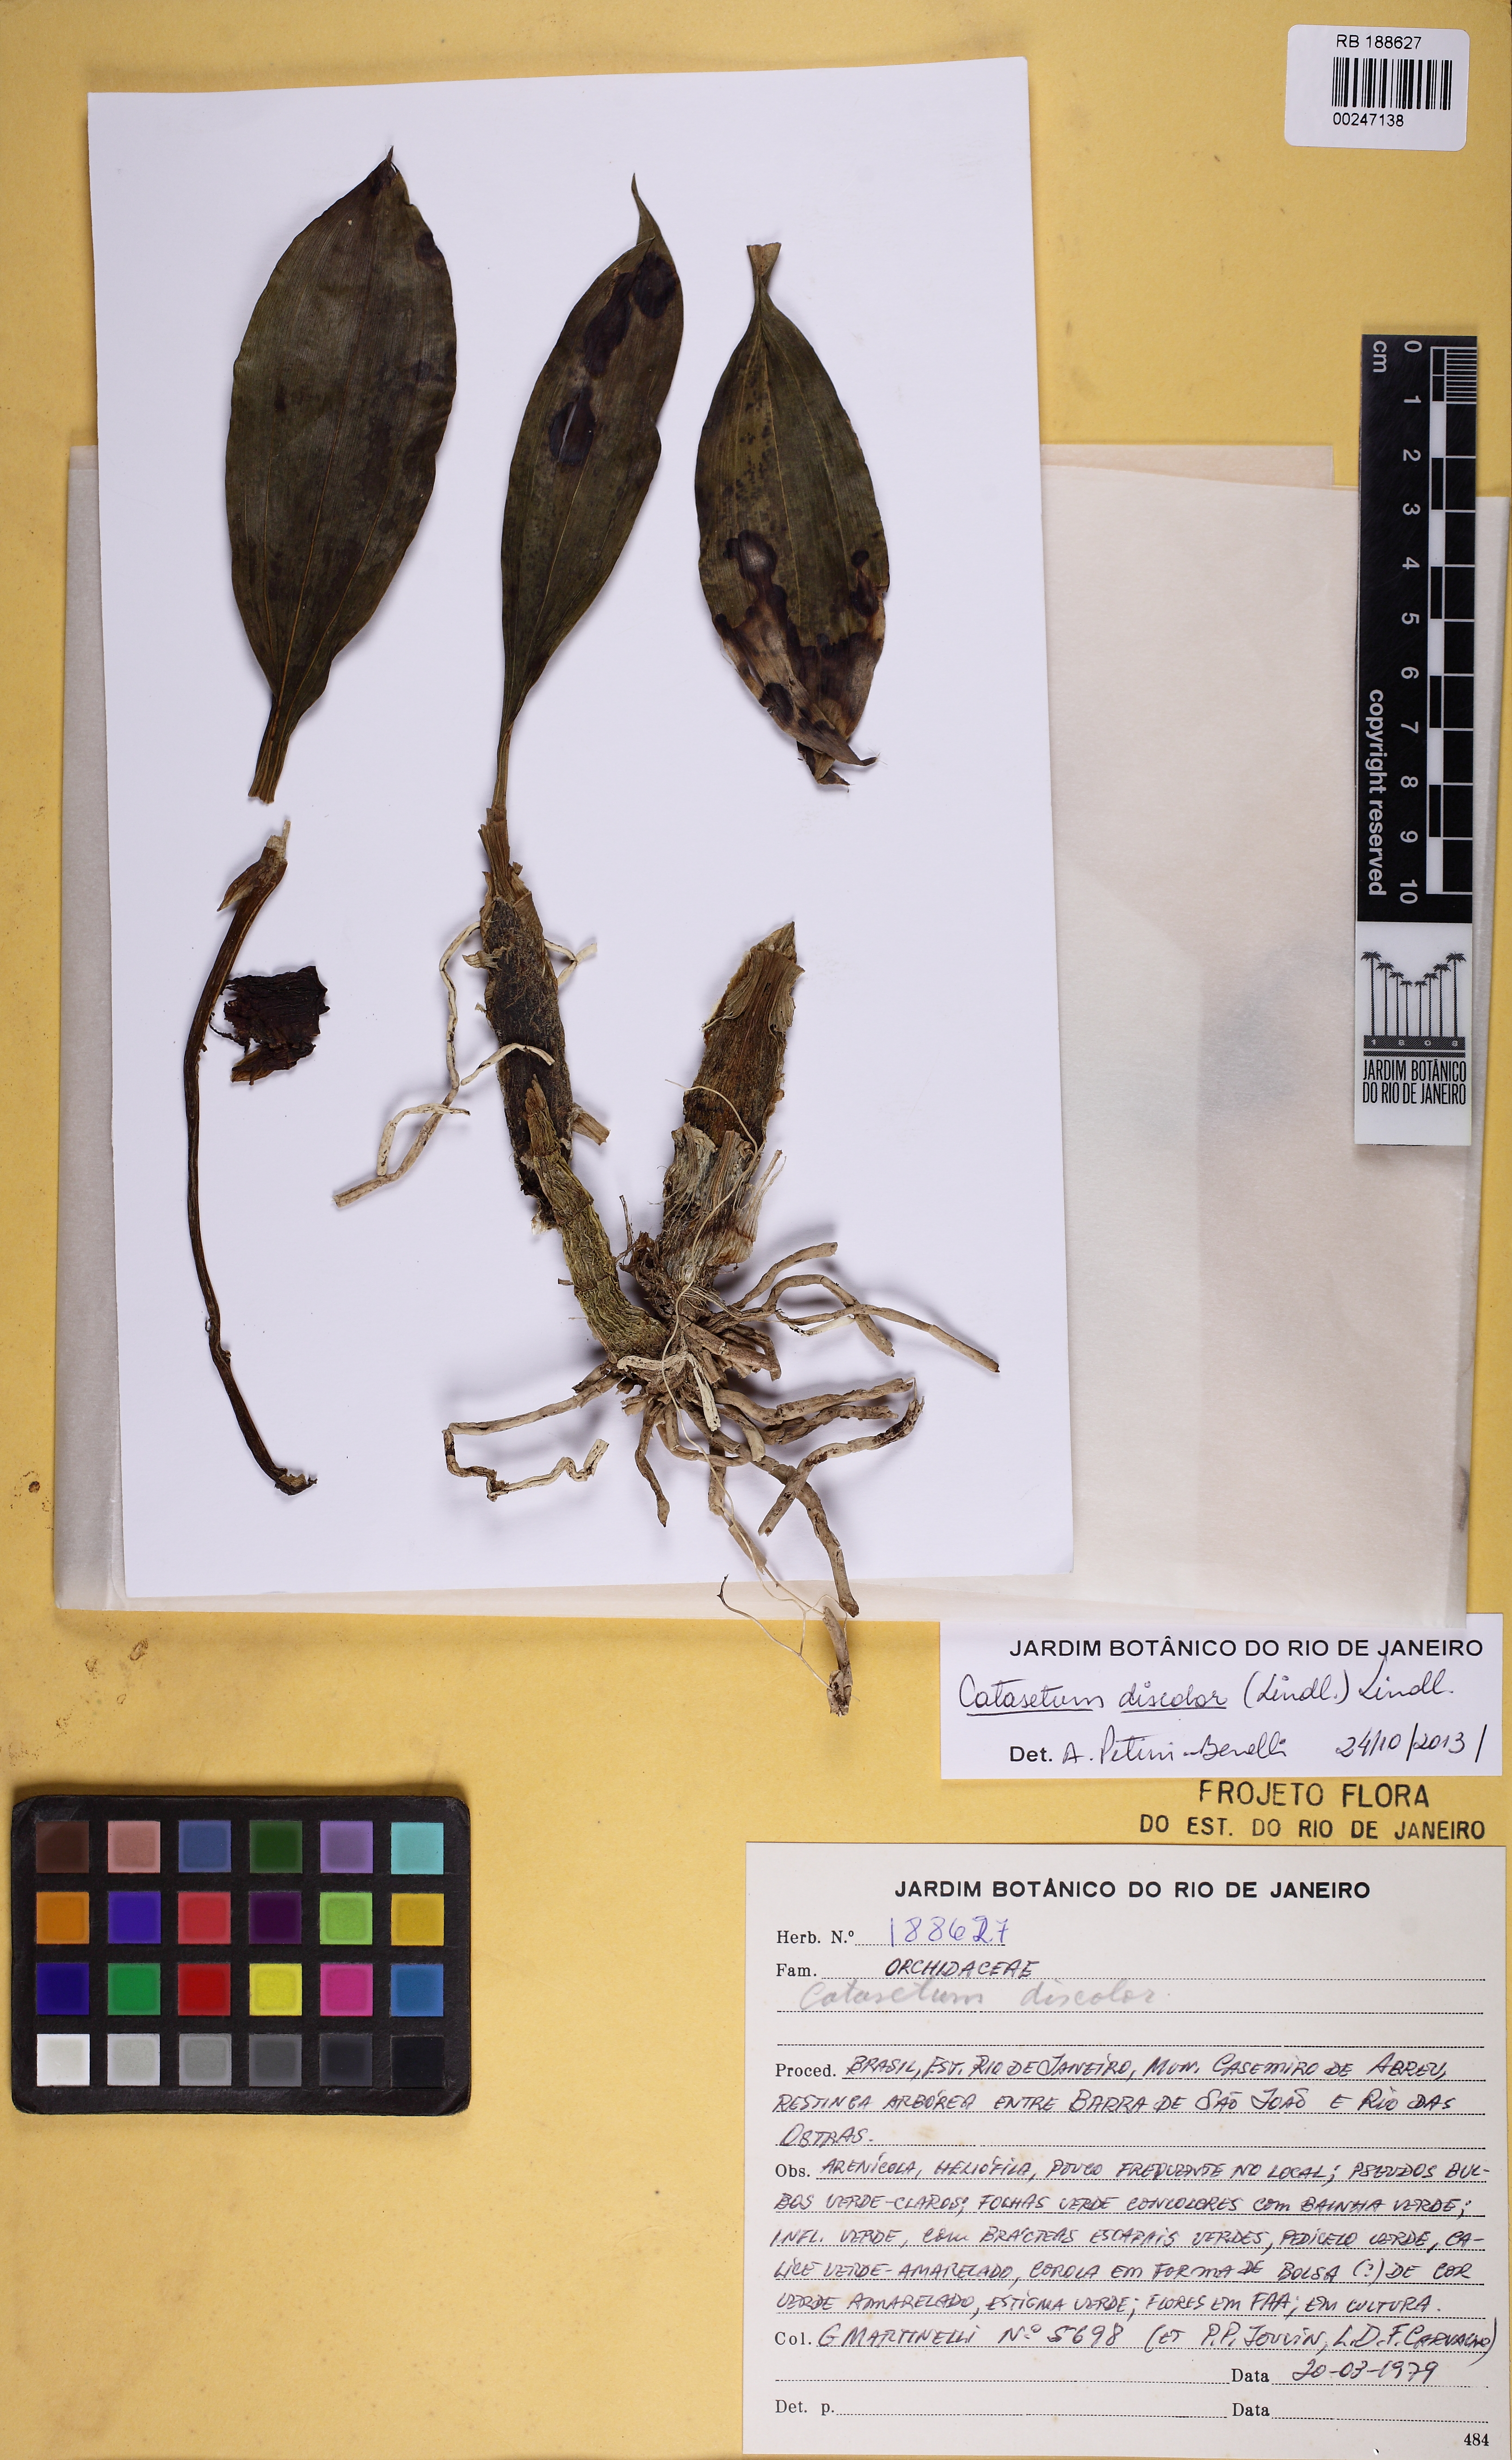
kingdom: Plantae
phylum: Tracheophyta
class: Liliopsida
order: Asparagales
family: Orchidaceae
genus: Catasetum
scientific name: Catasetum discolor
